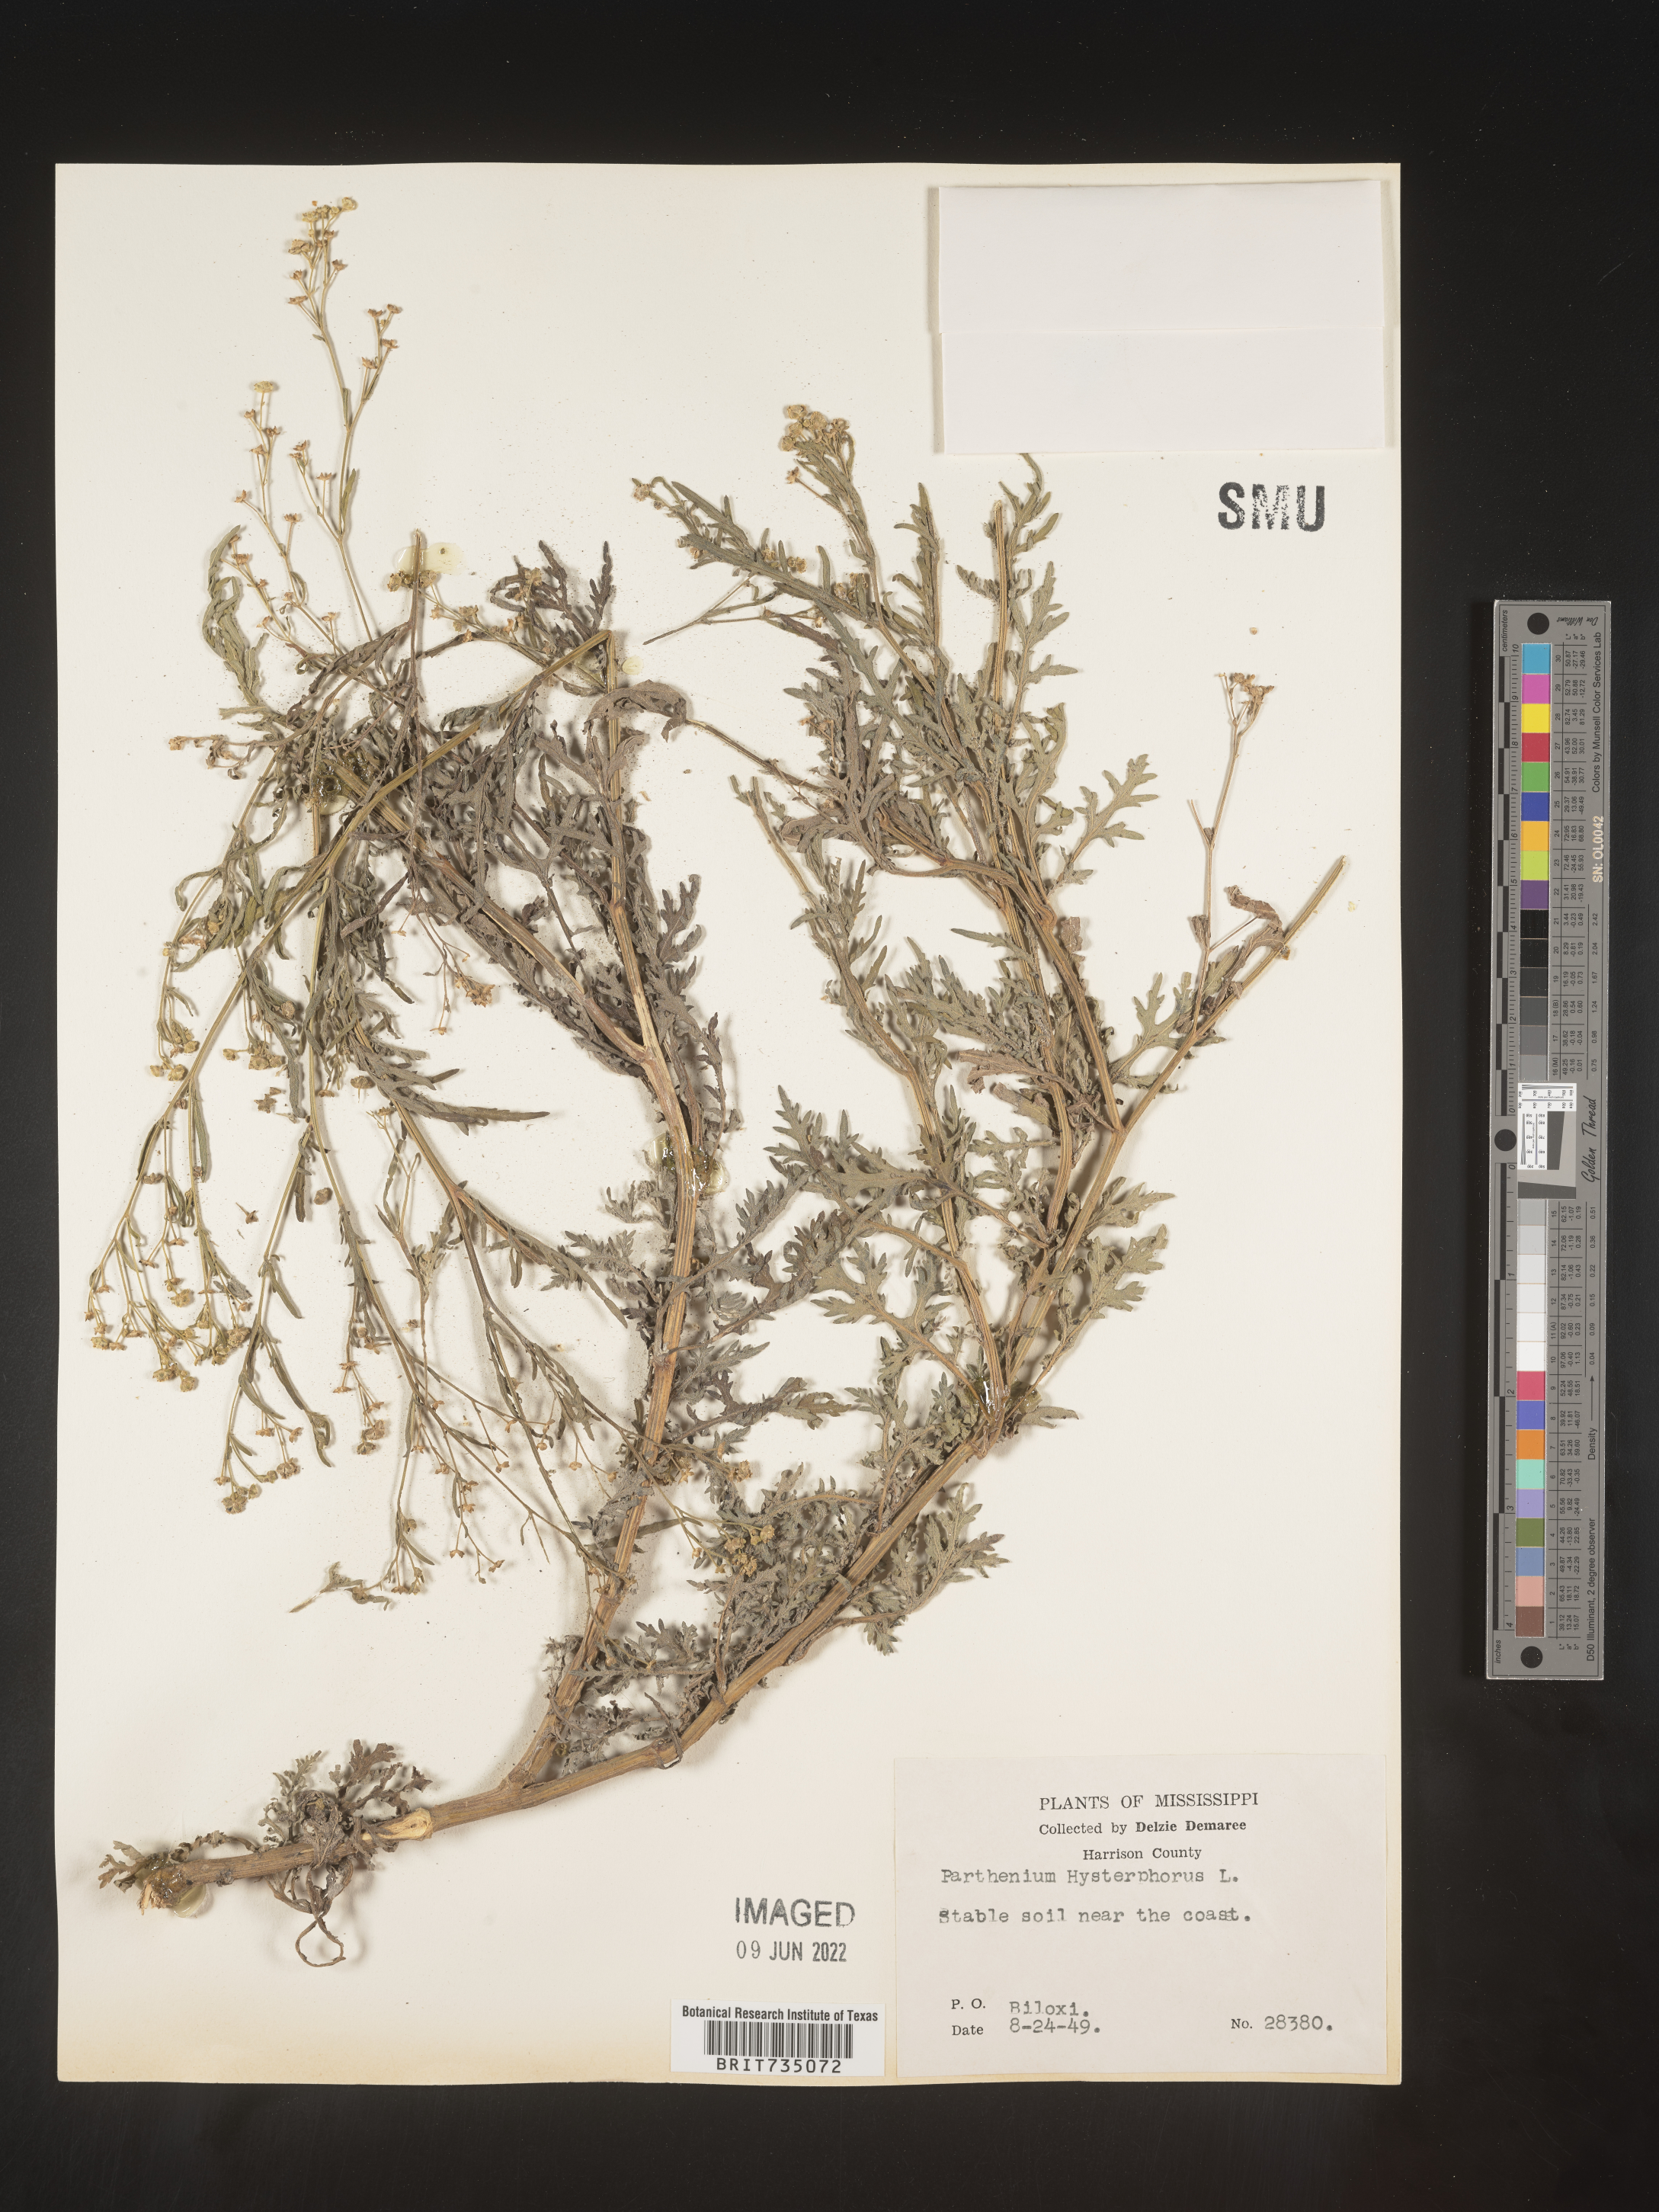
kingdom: Plantae
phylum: Tracheophyta
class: Magnoliopsida
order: Asterales
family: Asteraceae
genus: Parthenium
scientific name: Parthenium hysterophorus
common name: Santa maria feverfew
